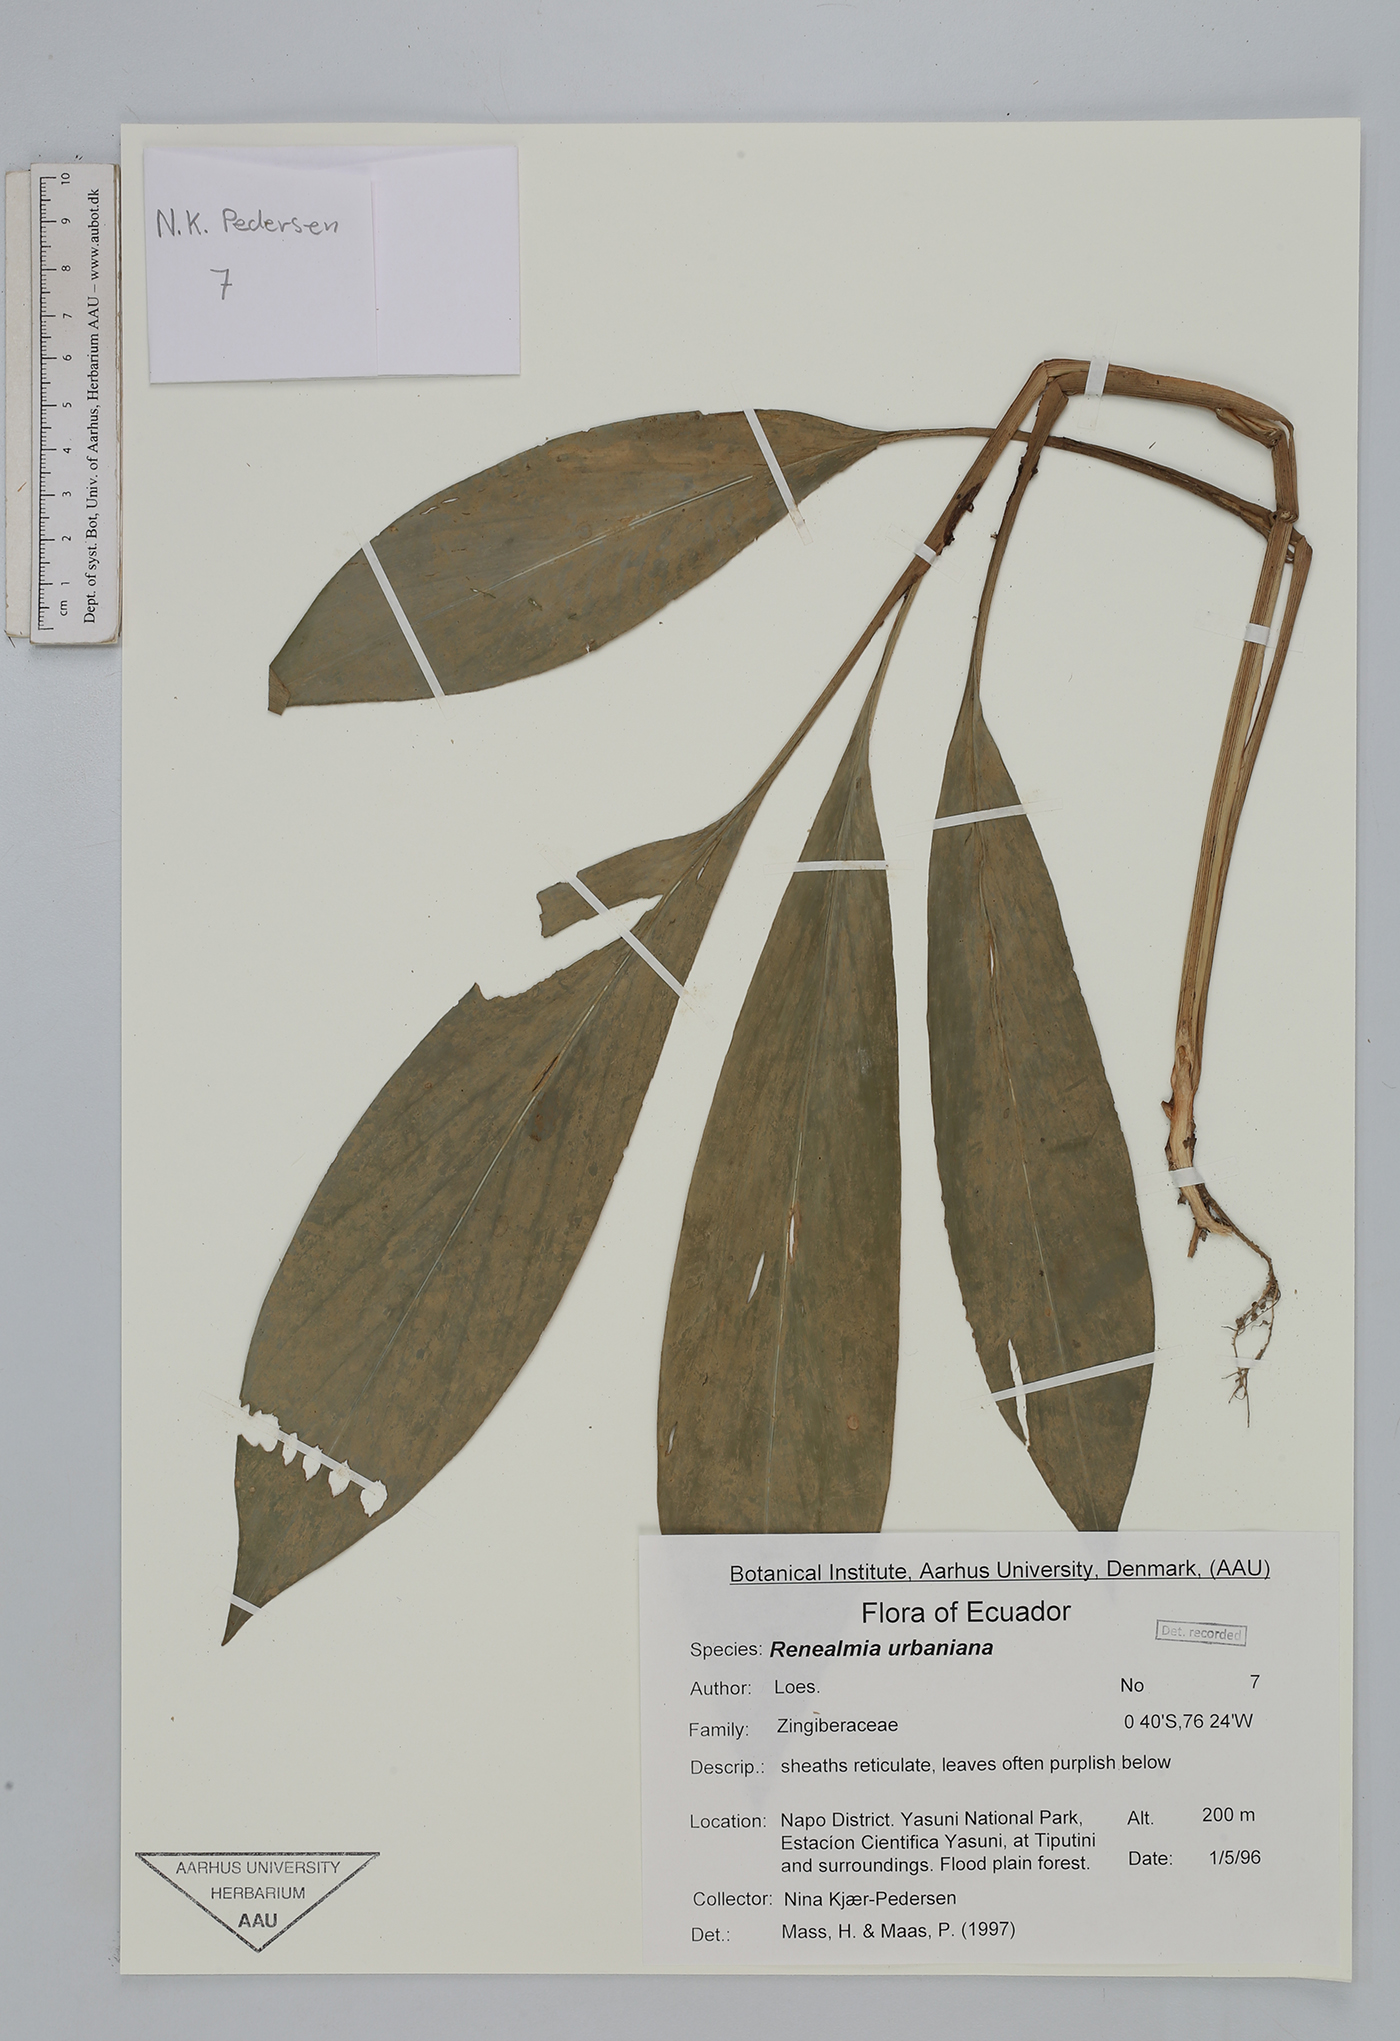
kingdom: Plantae
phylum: Tracheophyta
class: Liliopsida
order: Zingiberales
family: Zingiberaceae
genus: Renealmia
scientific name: Renealmia urbaniana
